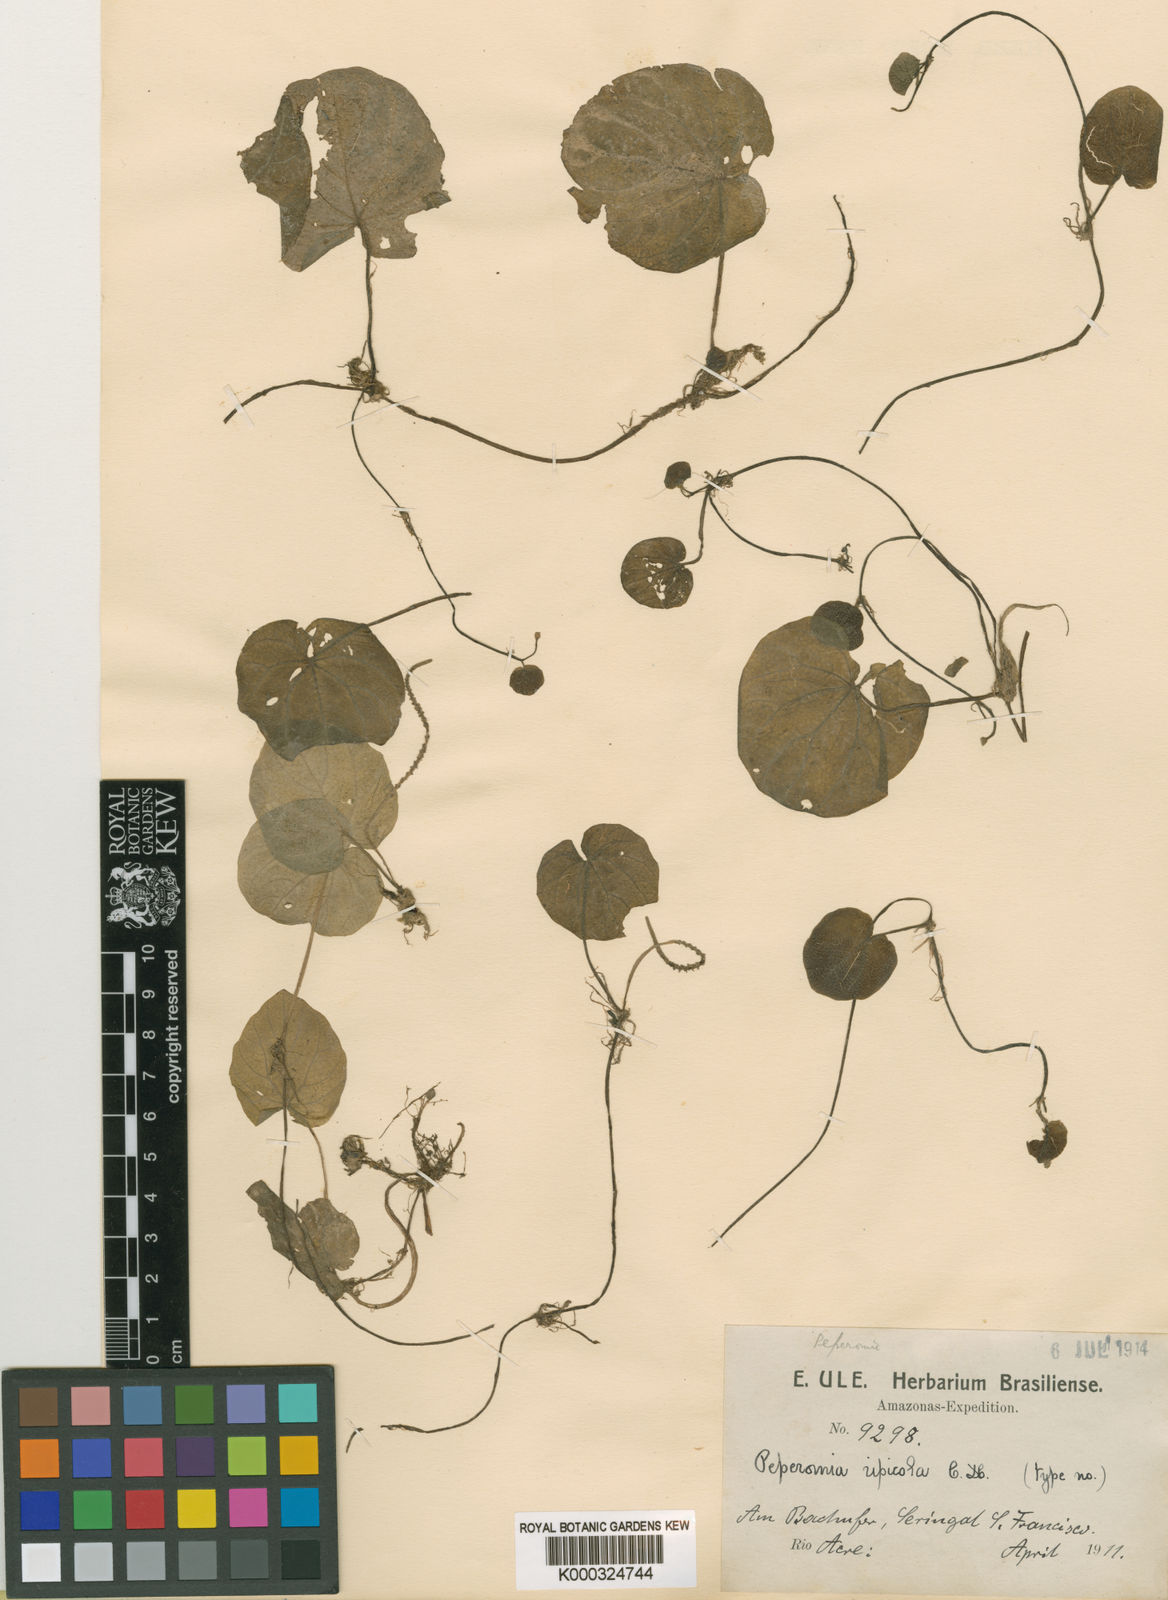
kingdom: Plantae
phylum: Tracheophyta
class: Magnoliopsida
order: Piperales
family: Piperaceae
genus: Peperomia
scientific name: Peperomia ripicola
